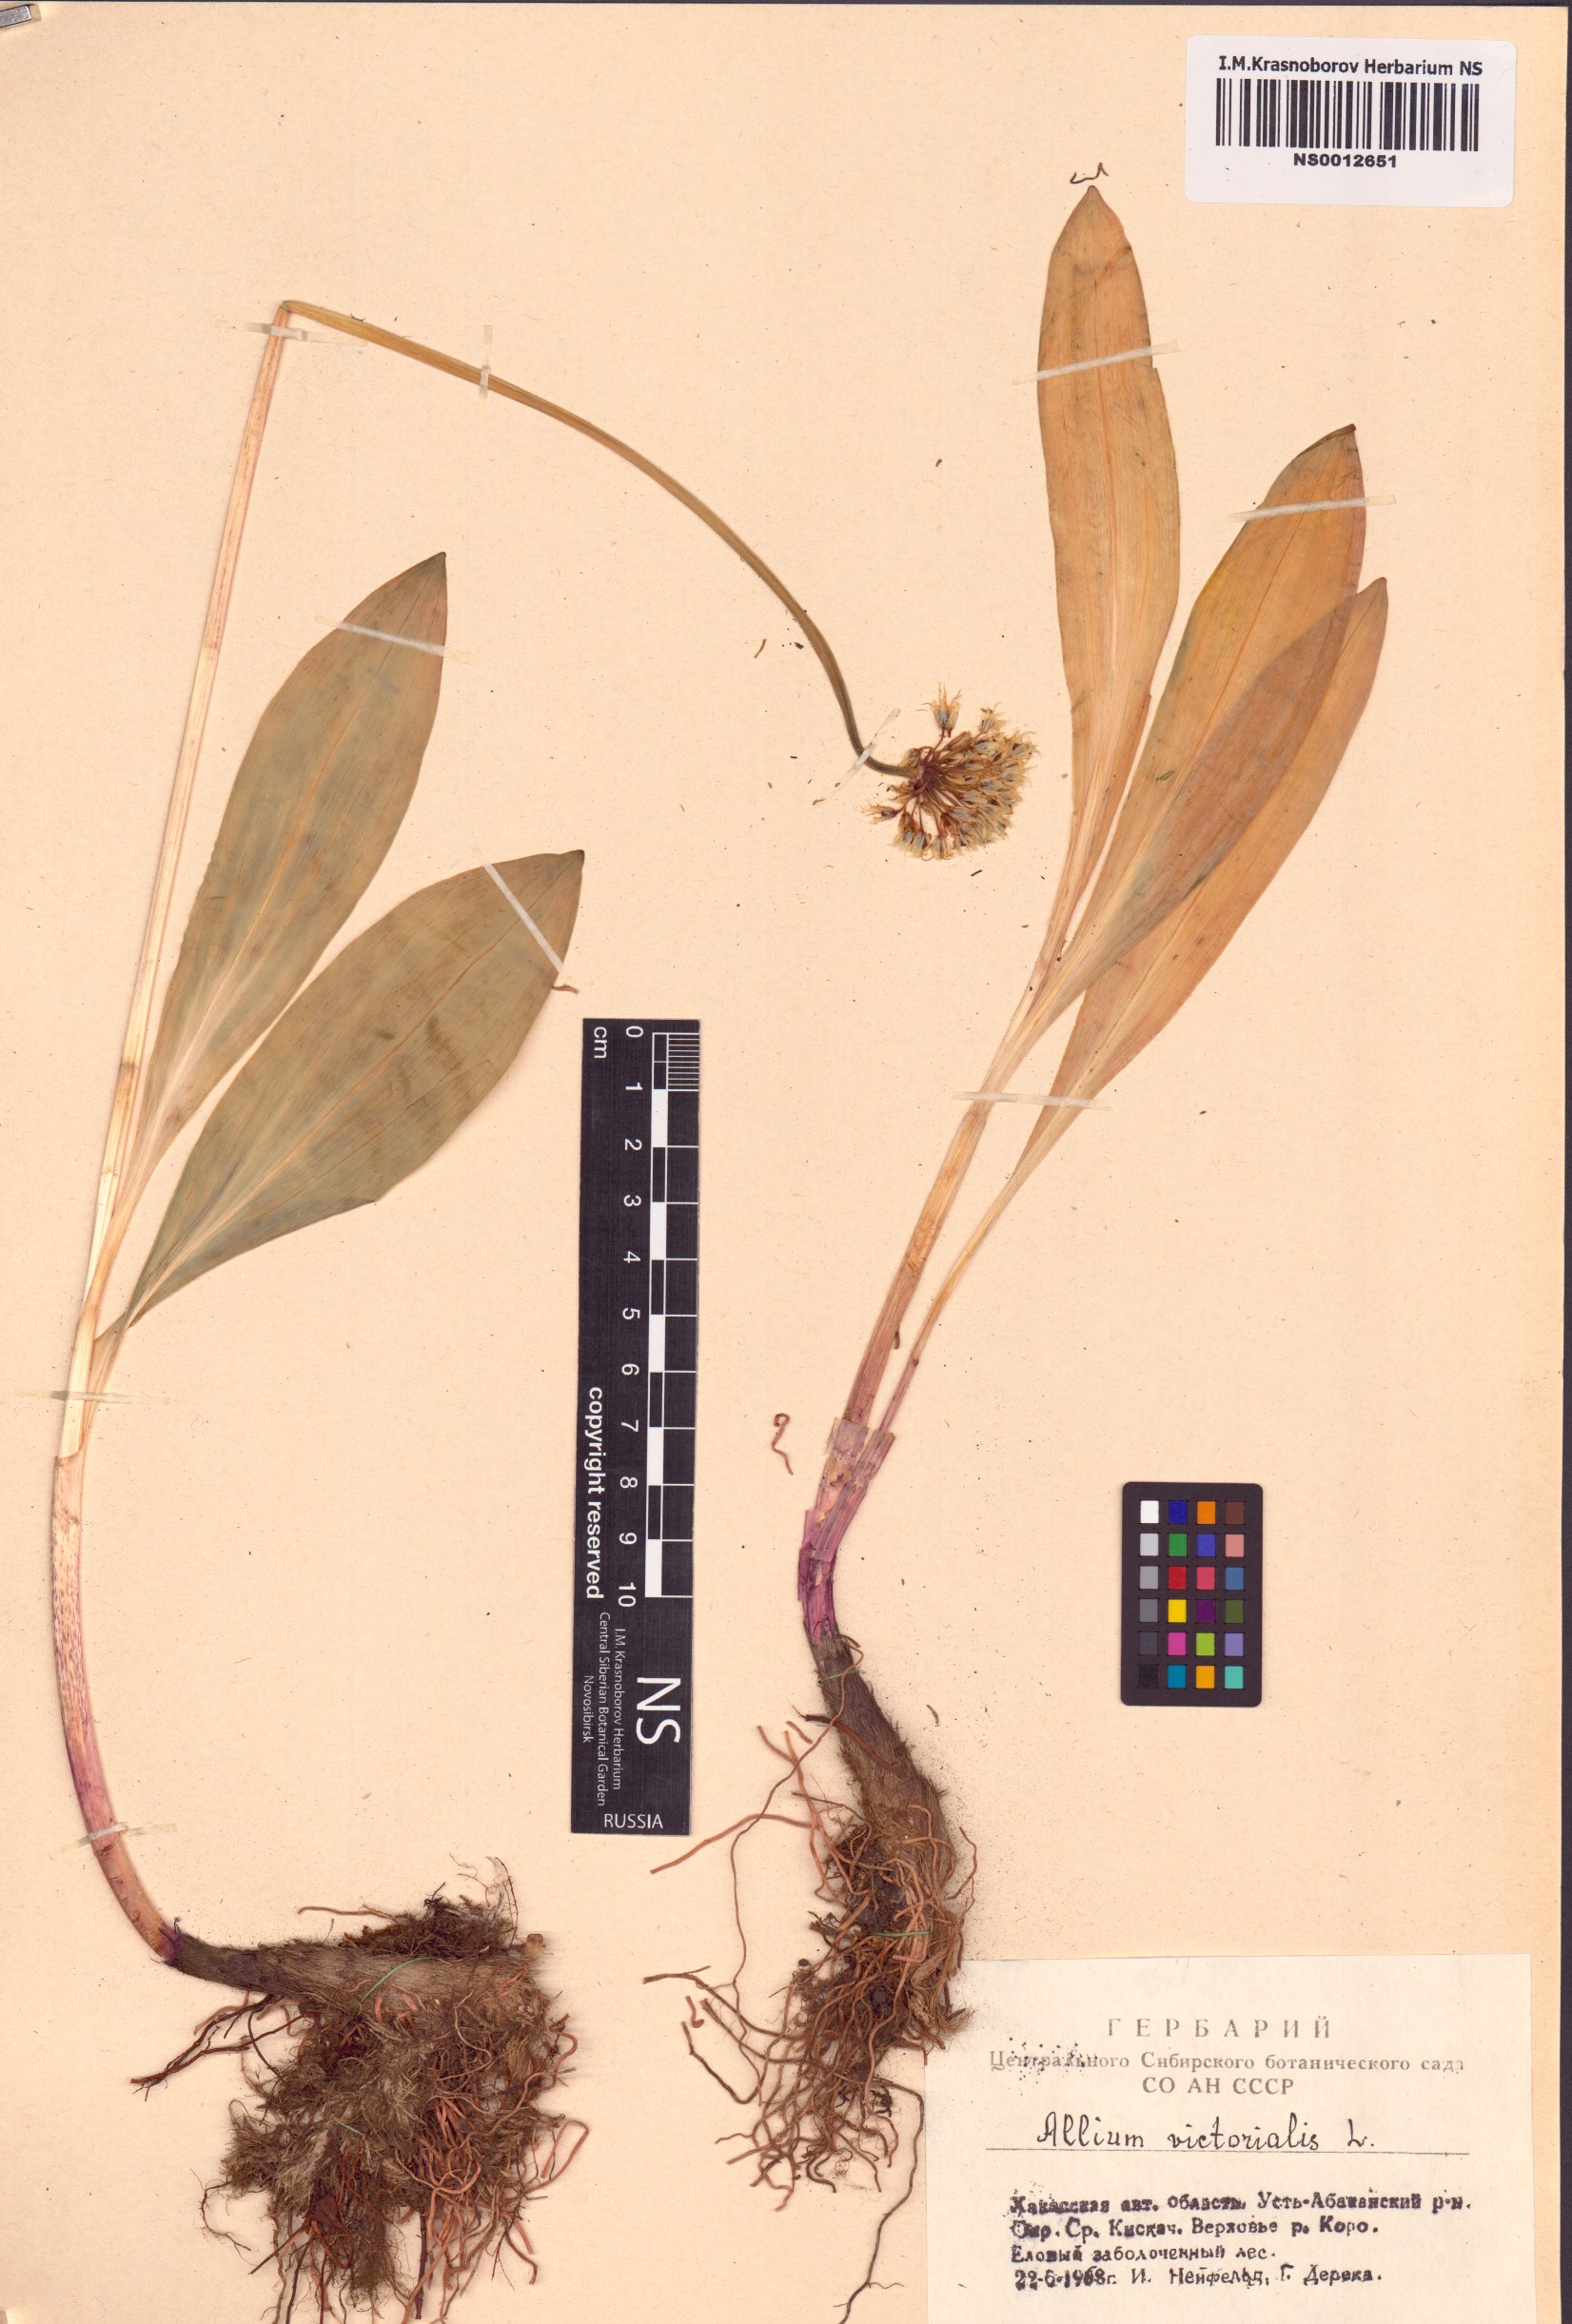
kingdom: Plantae
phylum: Tracheophyta
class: Liliopsida
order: Asparagales
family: Amaryllidaceae
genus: Allium
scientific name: Allium microdictyon
